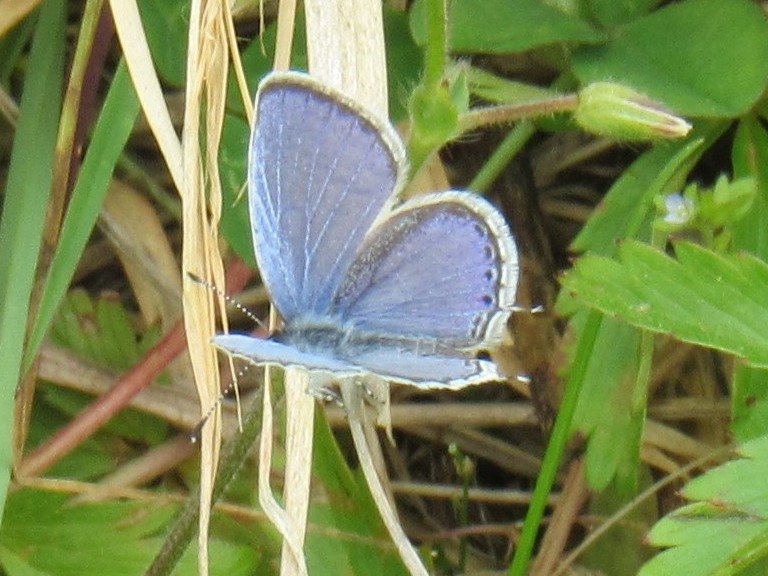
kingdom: Animalia
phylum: Arthropoda
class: Insecta
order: Lepidoptera
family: Lycaenidae
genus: Elkalyce
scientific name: Elkalyce comyntas
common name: Eastern Tailed-Blue
